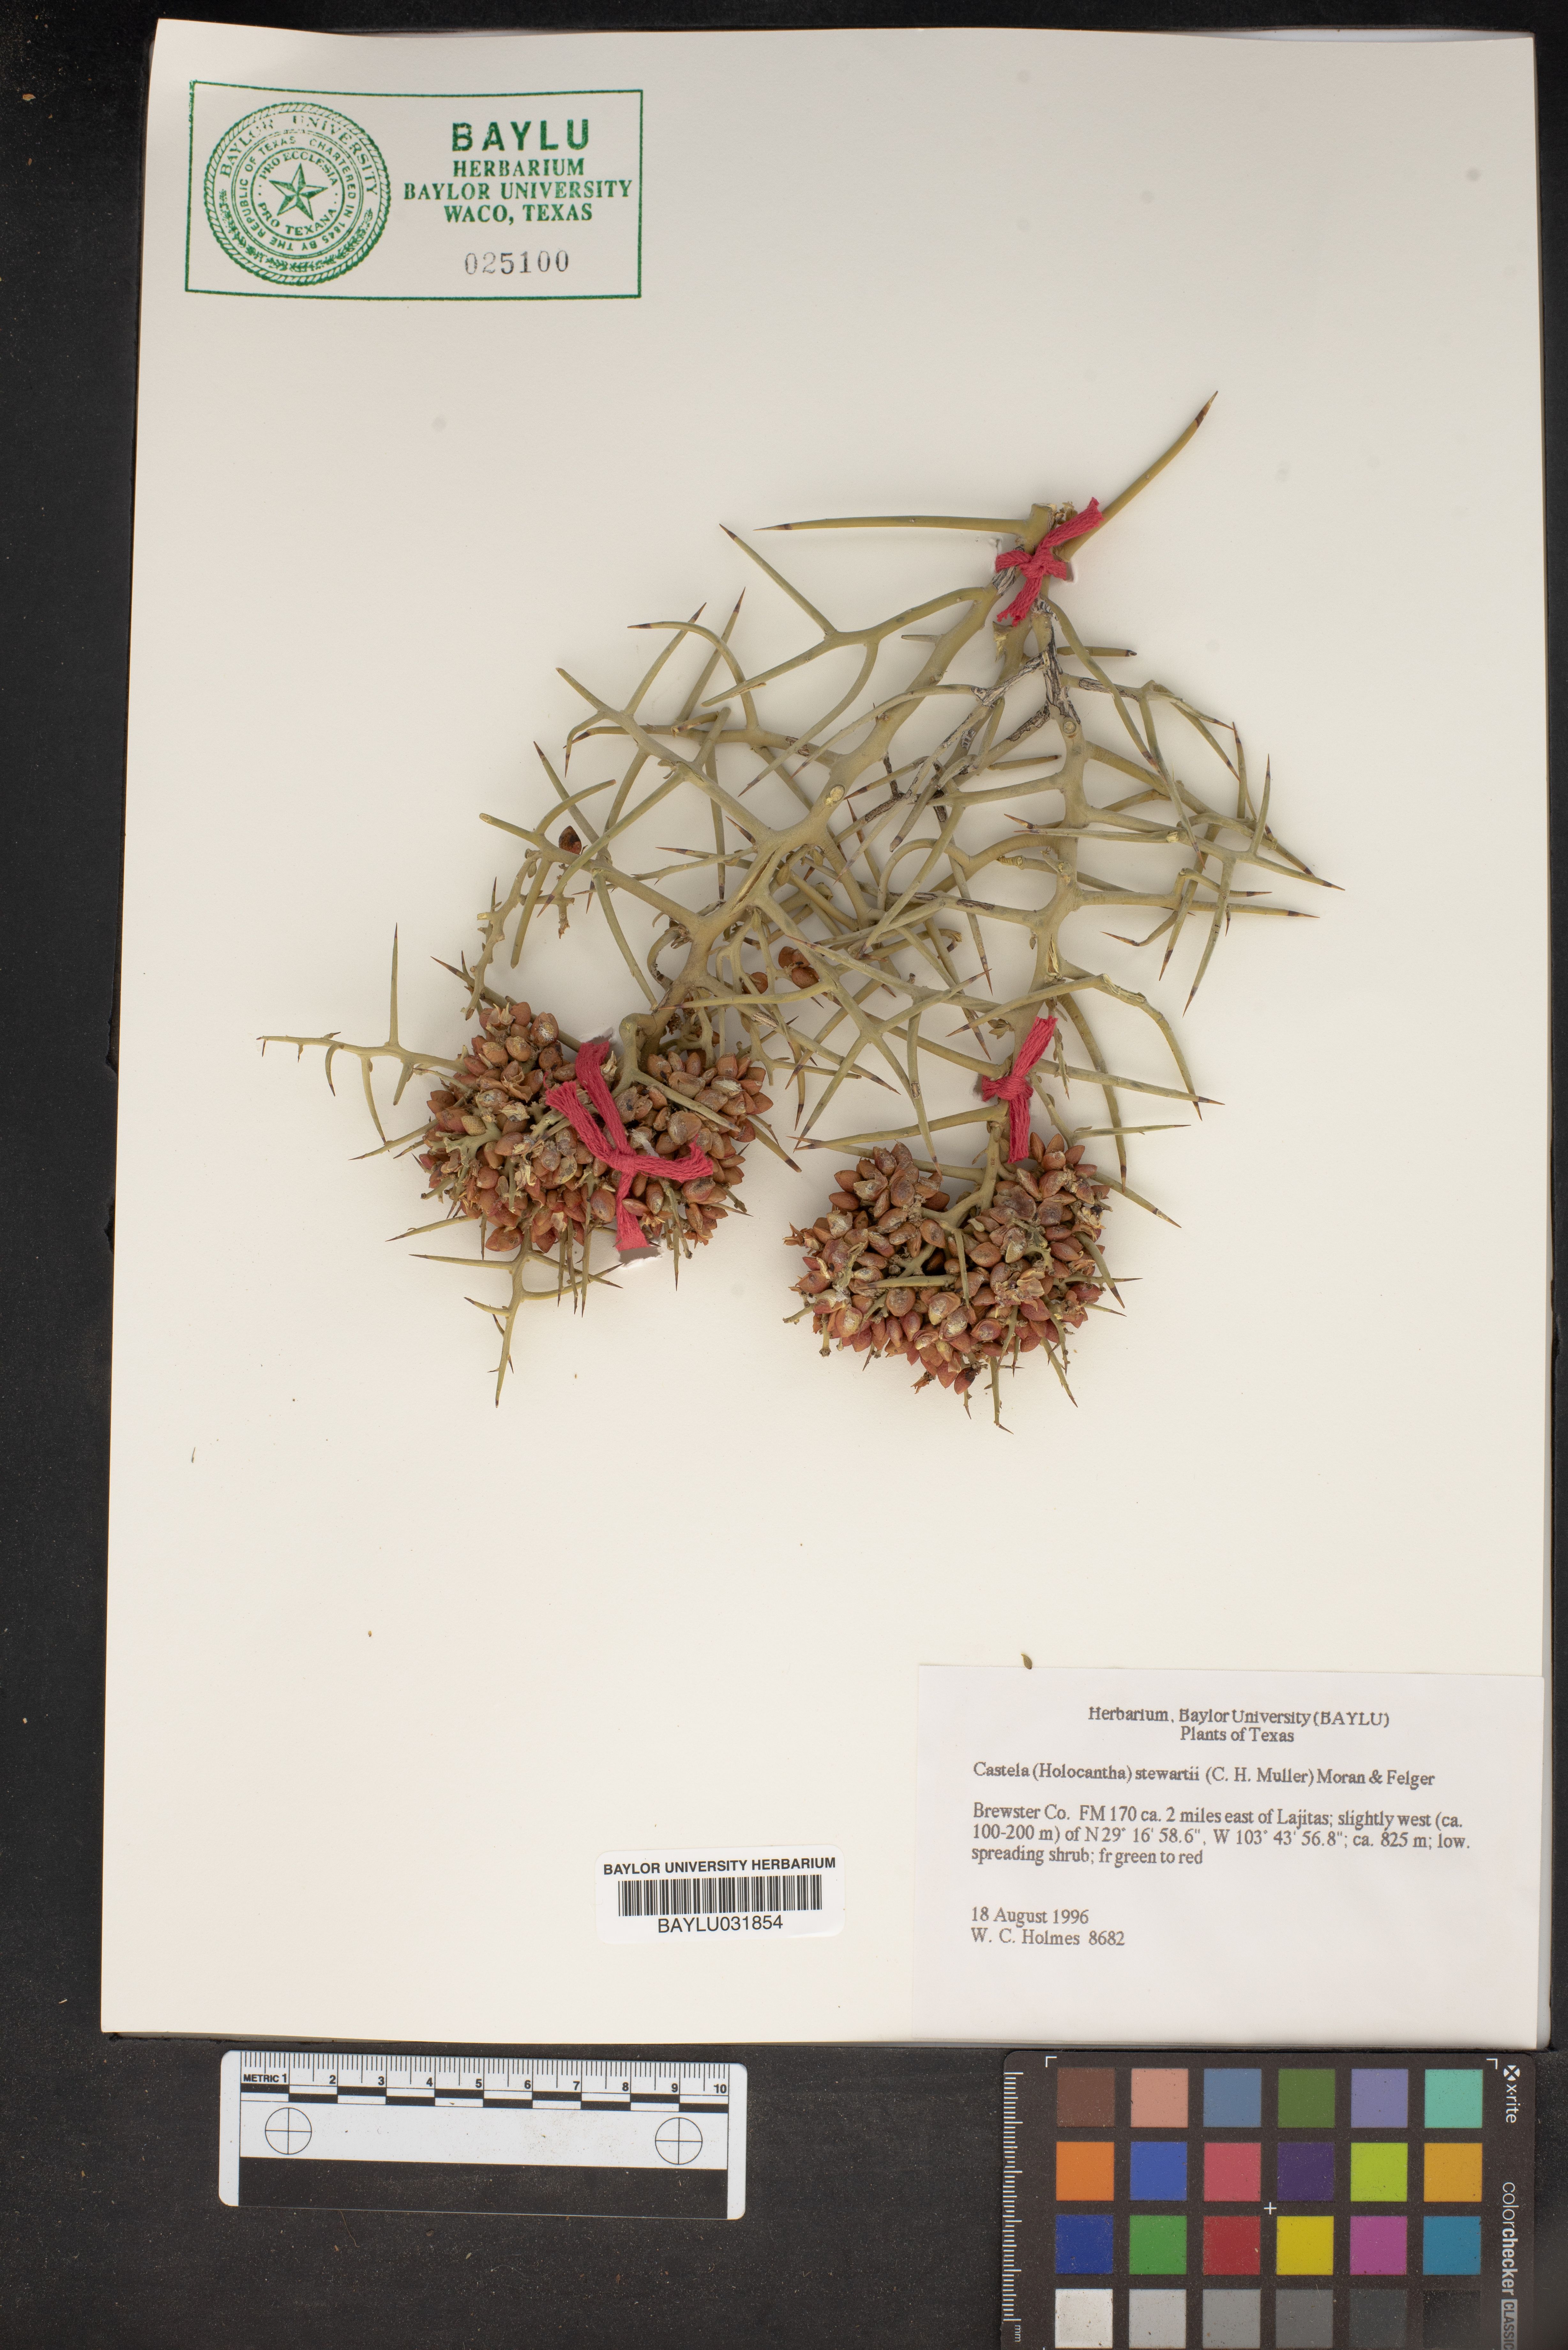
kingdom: Plantae
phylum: Tracheophyta
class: Magnoliopsida
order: Sapindales
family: Simaroubaceae
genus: Holacantha
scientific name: Holacantha stewartii
